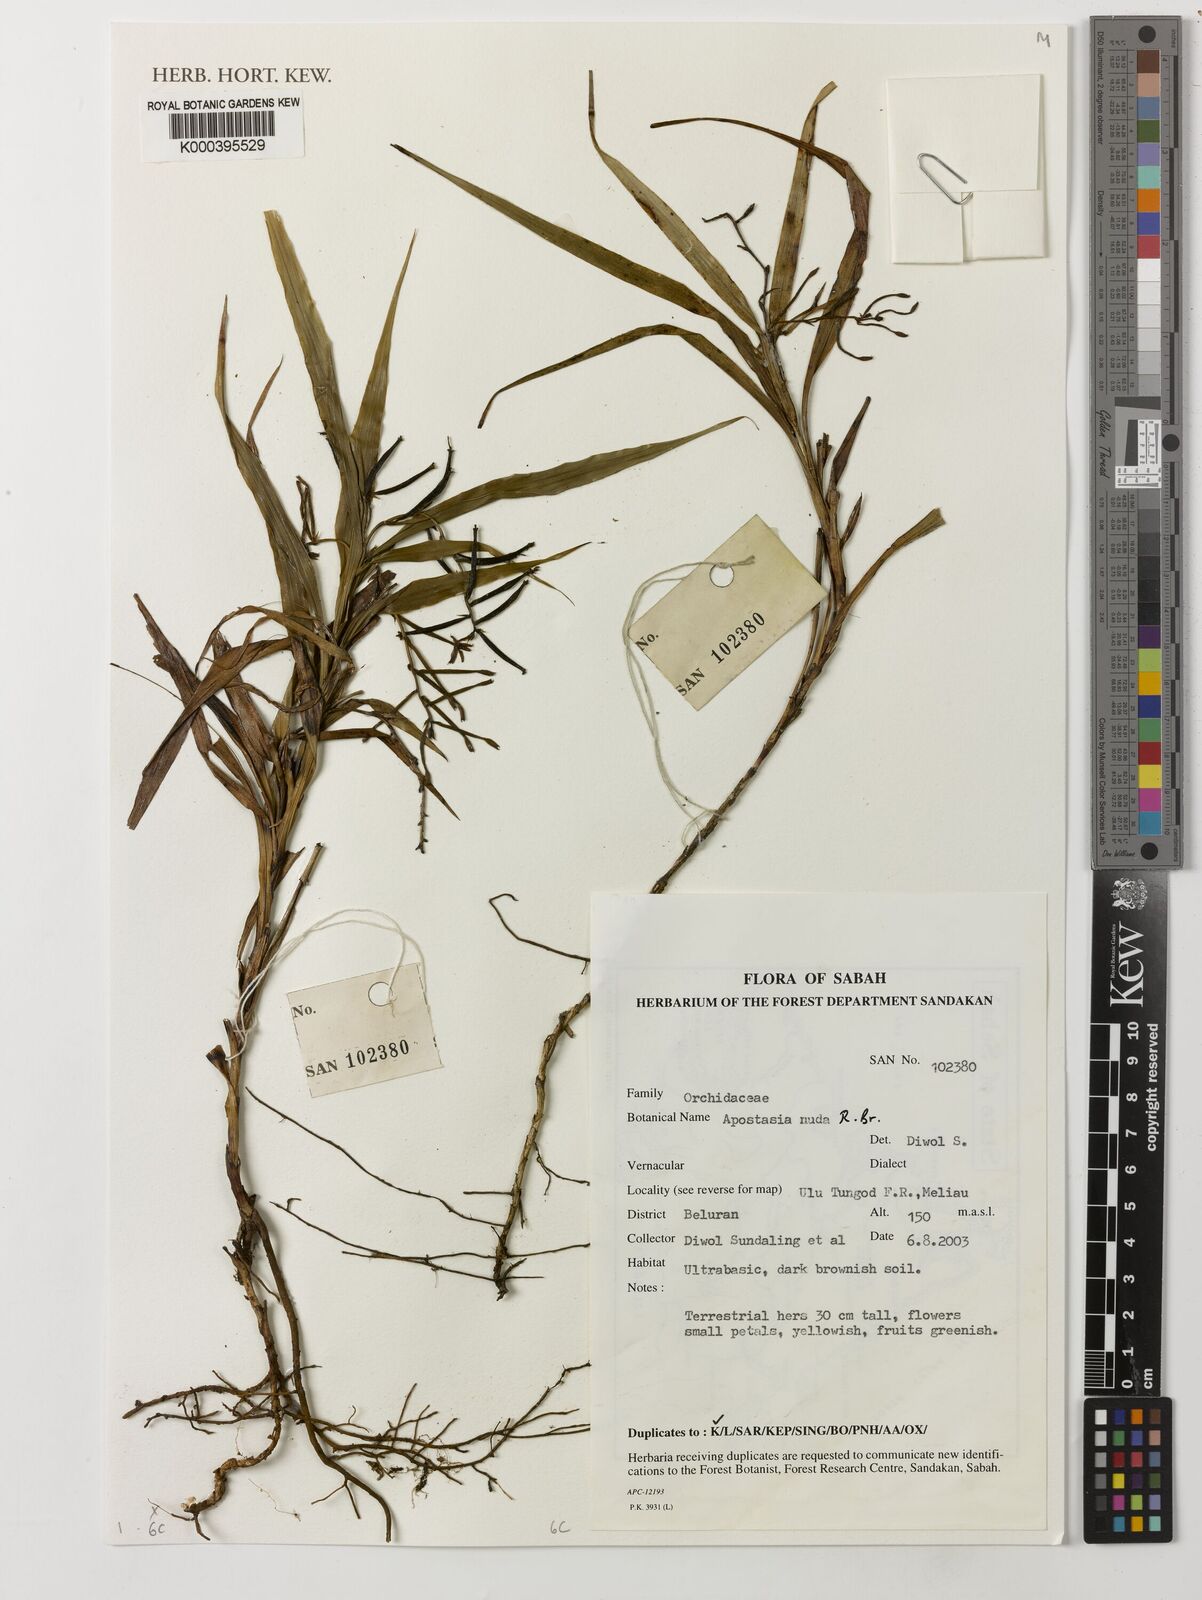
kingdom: Plantae
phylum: Tracheophyta
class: Liliopsida
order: Asparagales
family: Orchidaceae
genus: Apostasia
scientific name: Apostasia nuda
